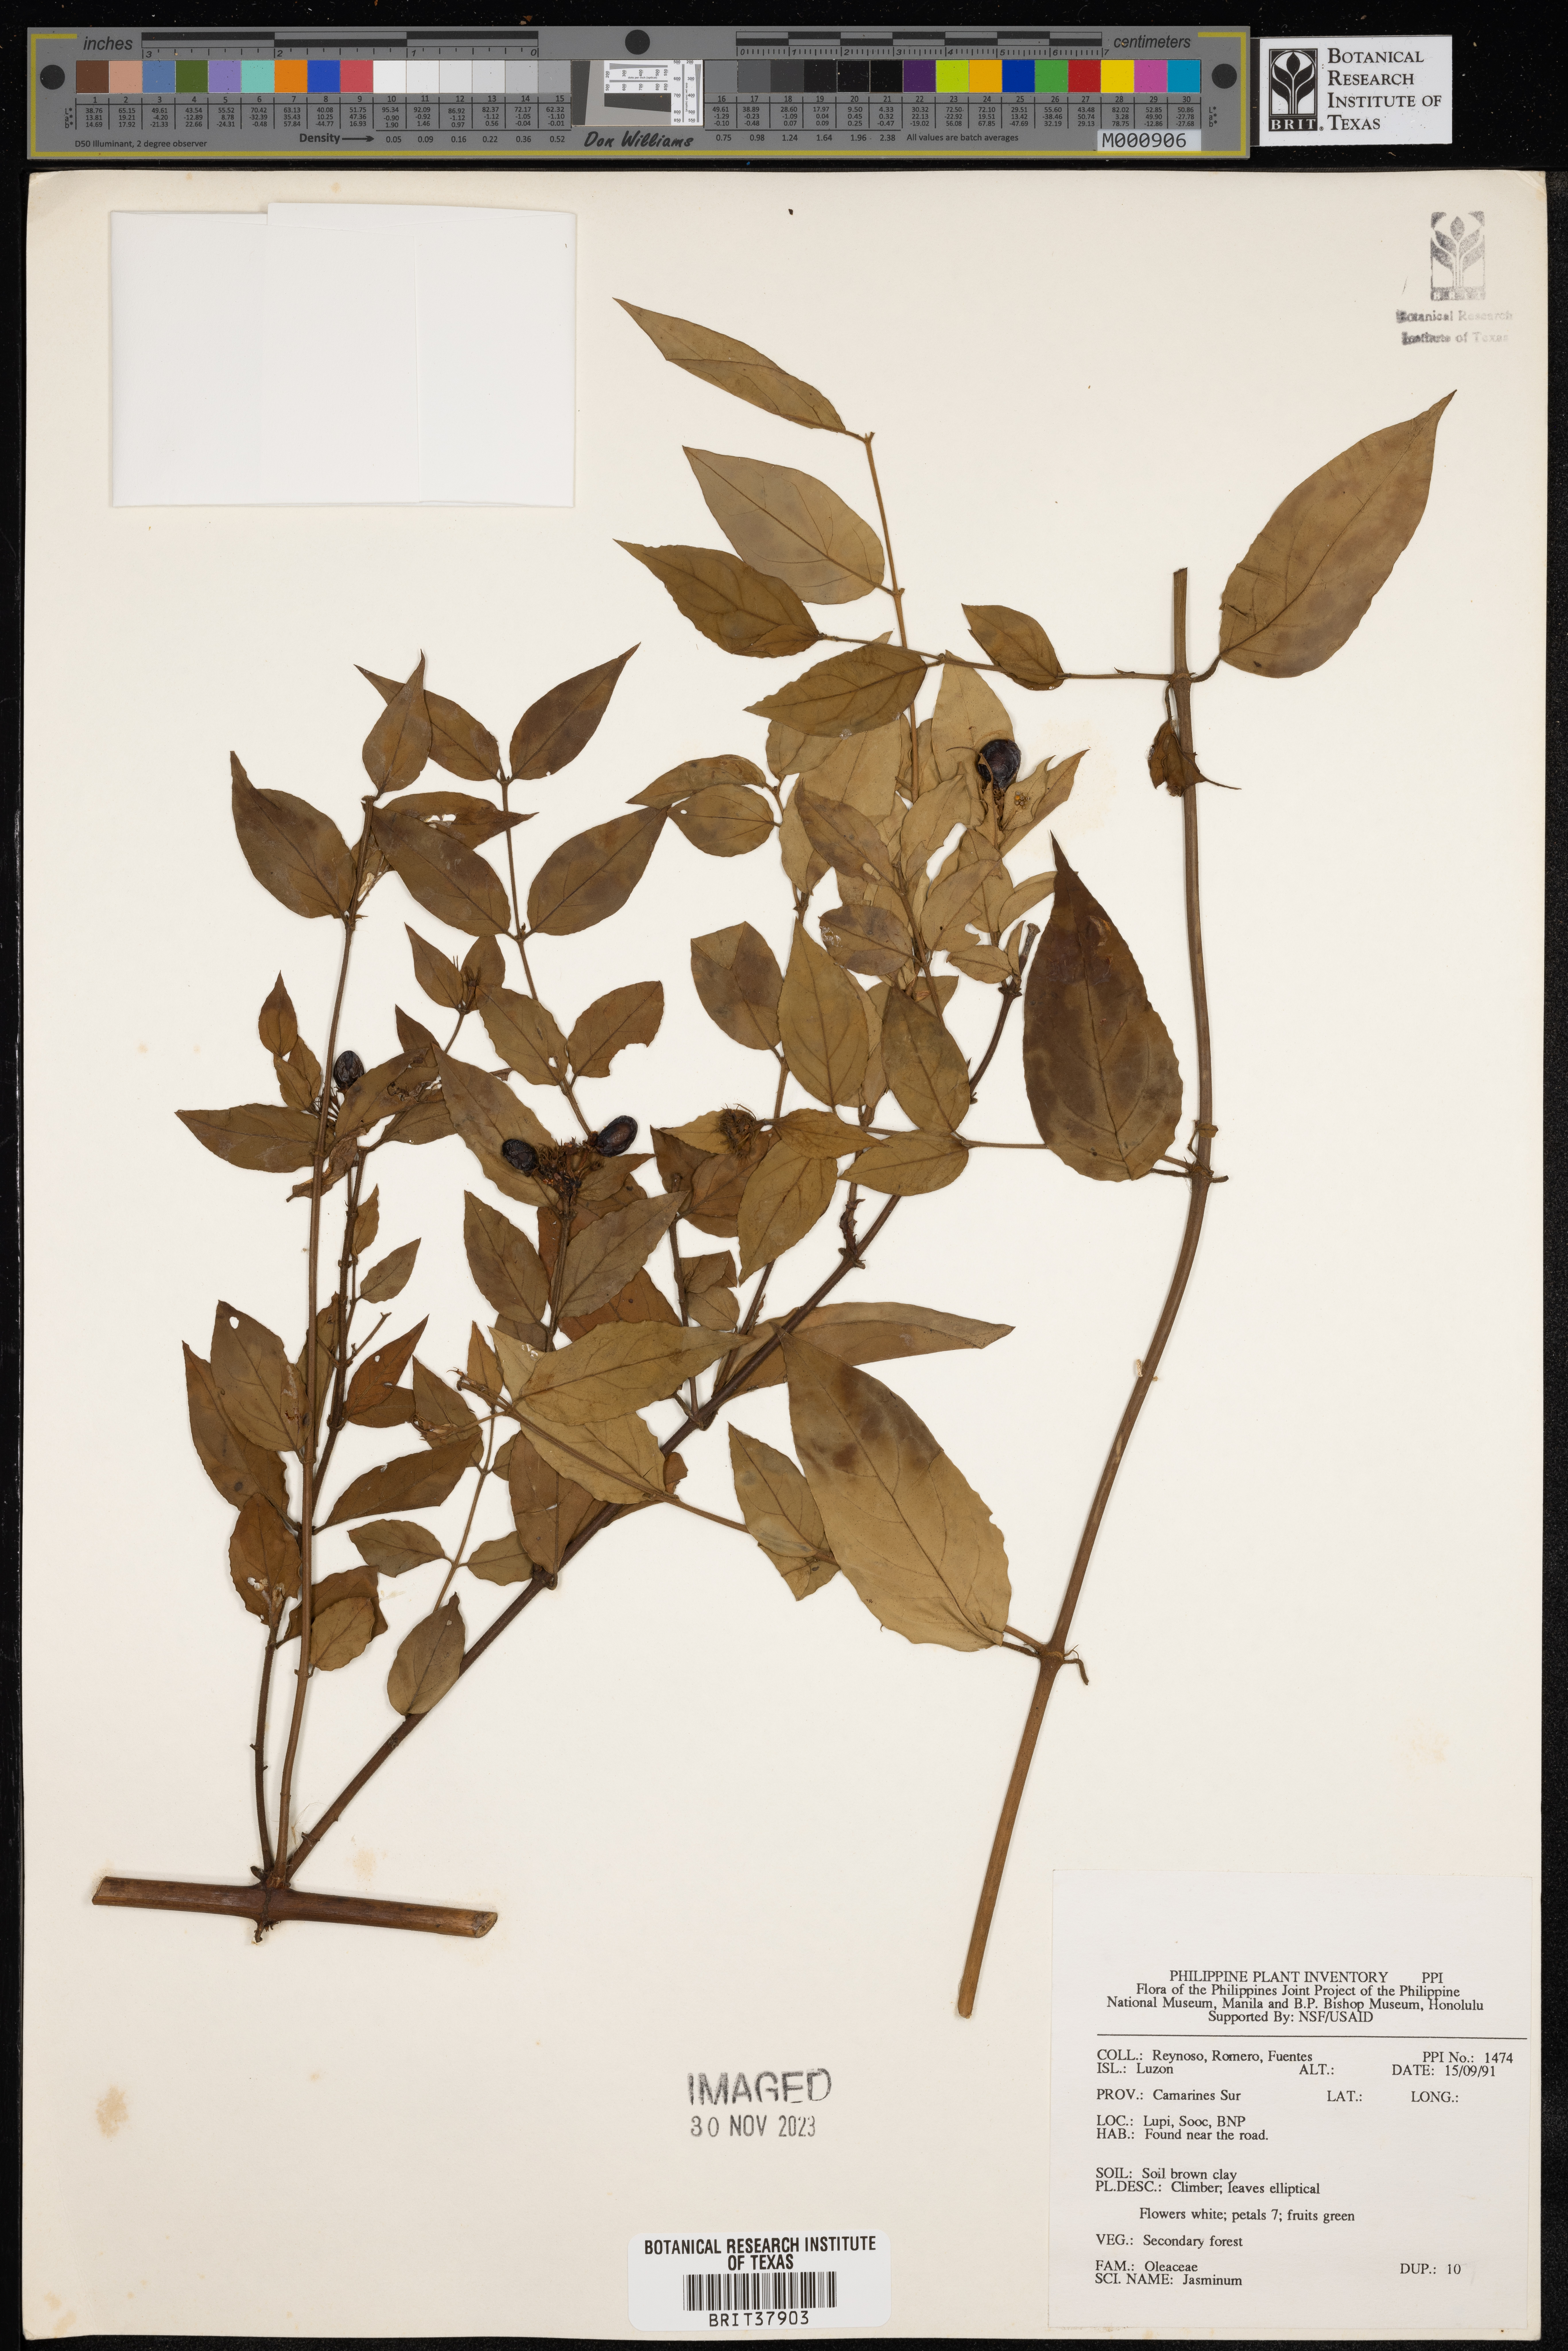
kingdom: Plantae
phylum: Tracheophyta
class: Magnoliopsida
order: Lamiales
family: Oleaceae
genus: Jasminum
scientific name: Jasminum
